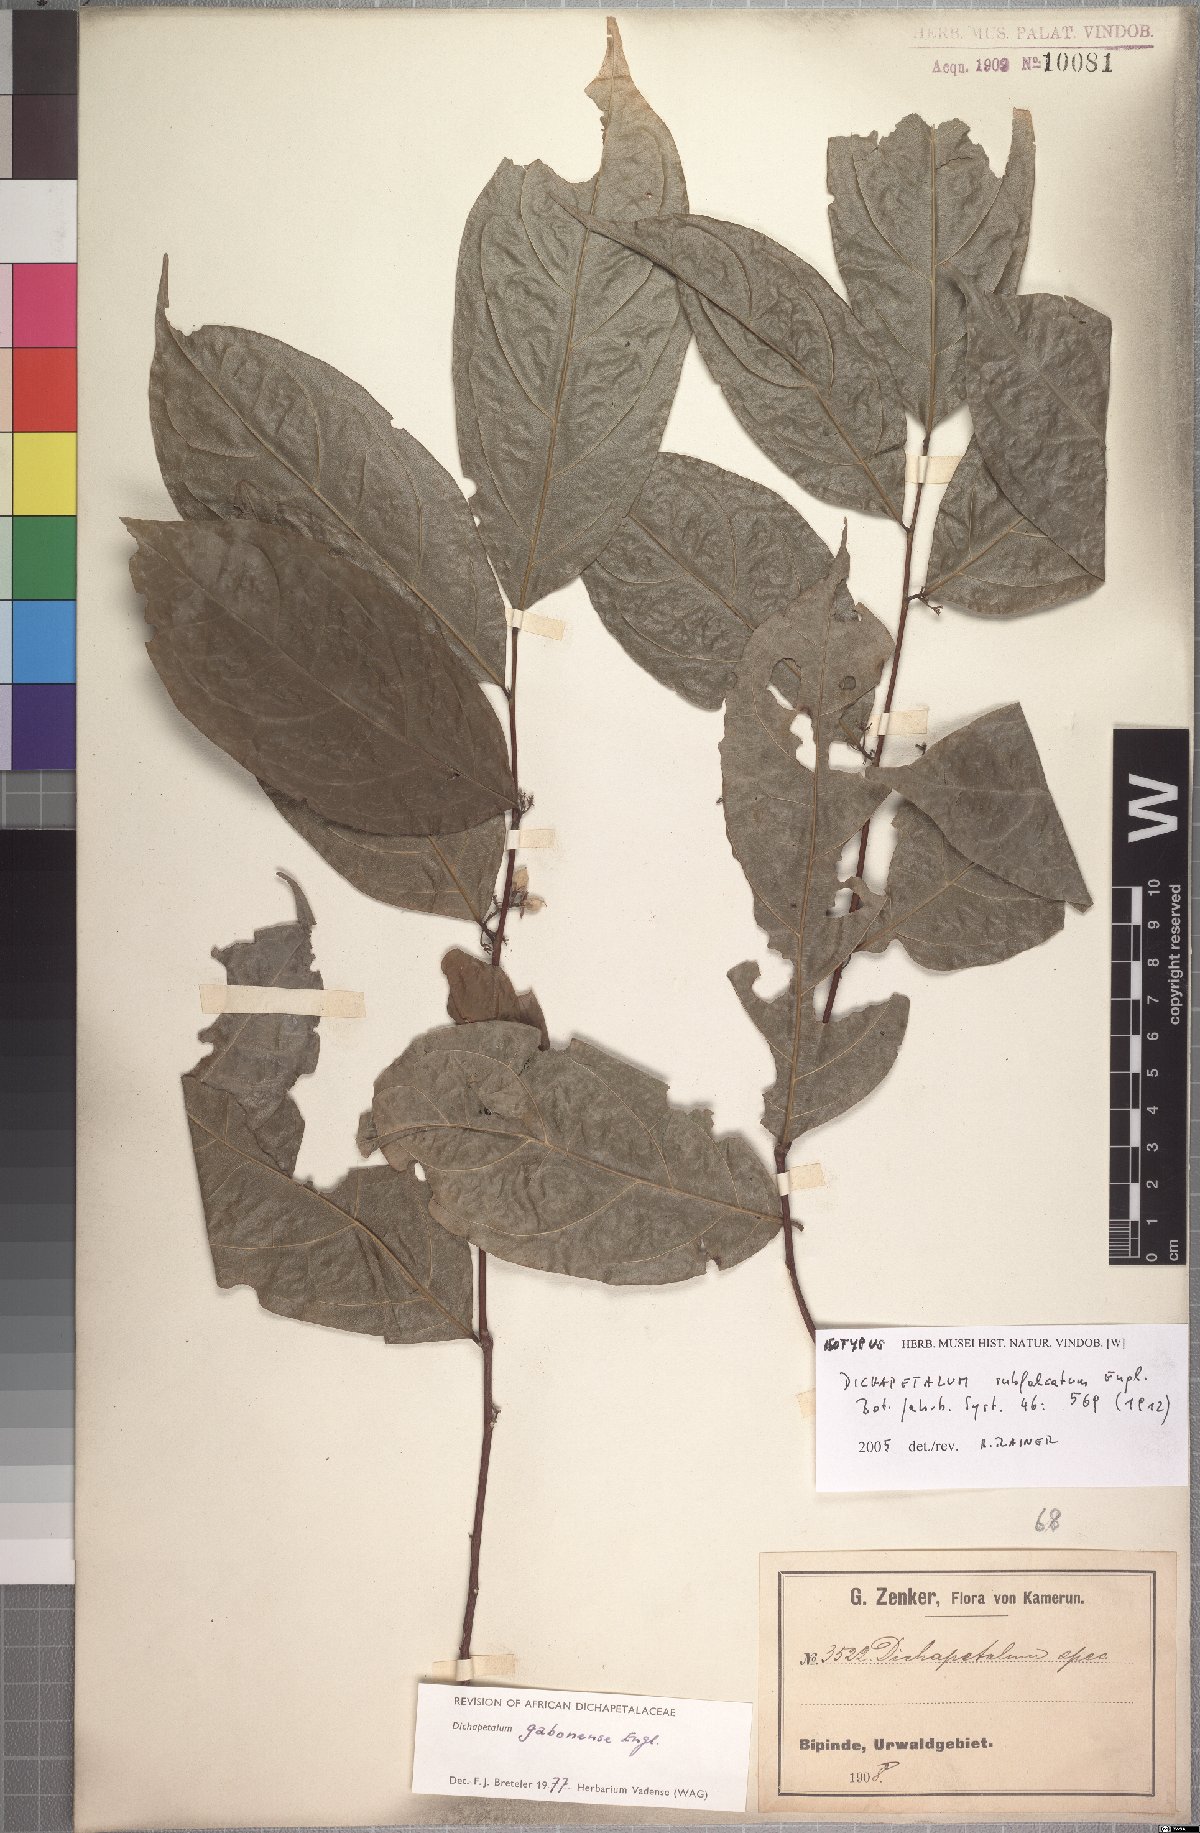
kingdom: Plantae
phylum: Tracheophyta
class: Magnoliopsida
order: Malpighiales
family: Dichapetalaceae
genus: Dichapetalum
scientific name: Dichapetalum gabonense
